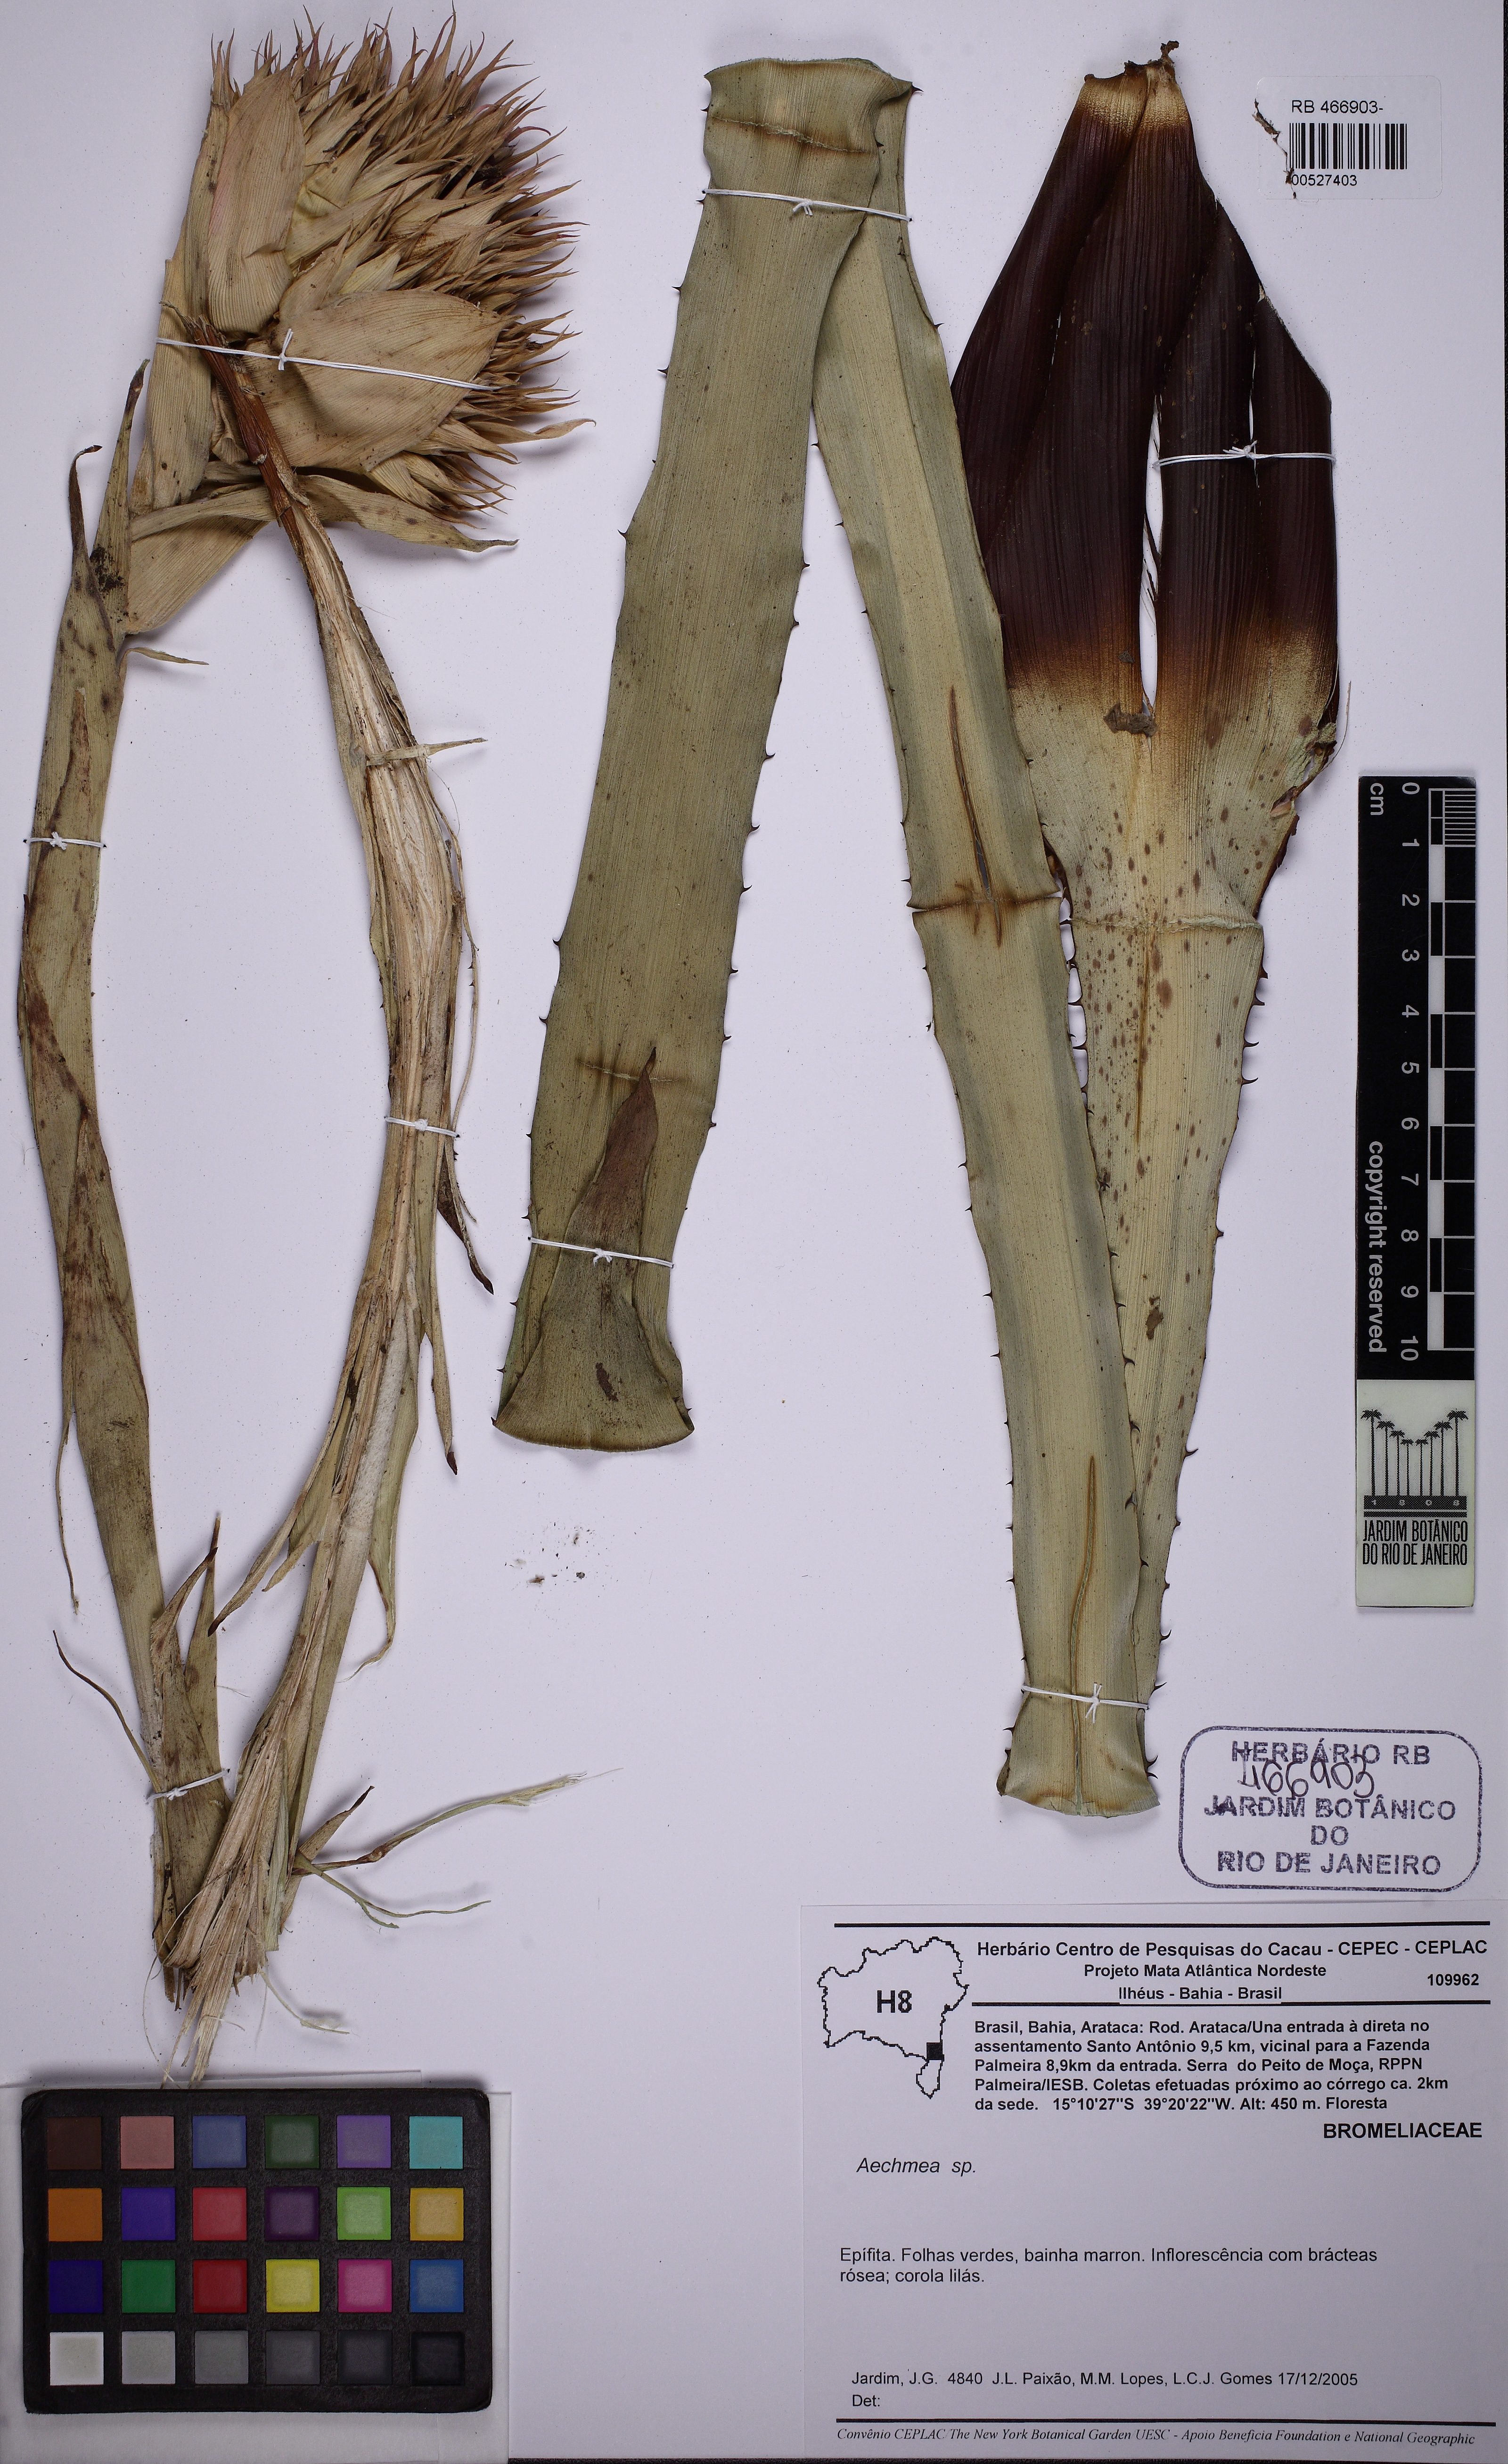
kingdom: Plantae
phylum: Tracheophyta
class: Liliopsida
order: Poales
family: Bromeliaceae
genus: Hohenbergia
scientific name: Hohenbergia capitata
